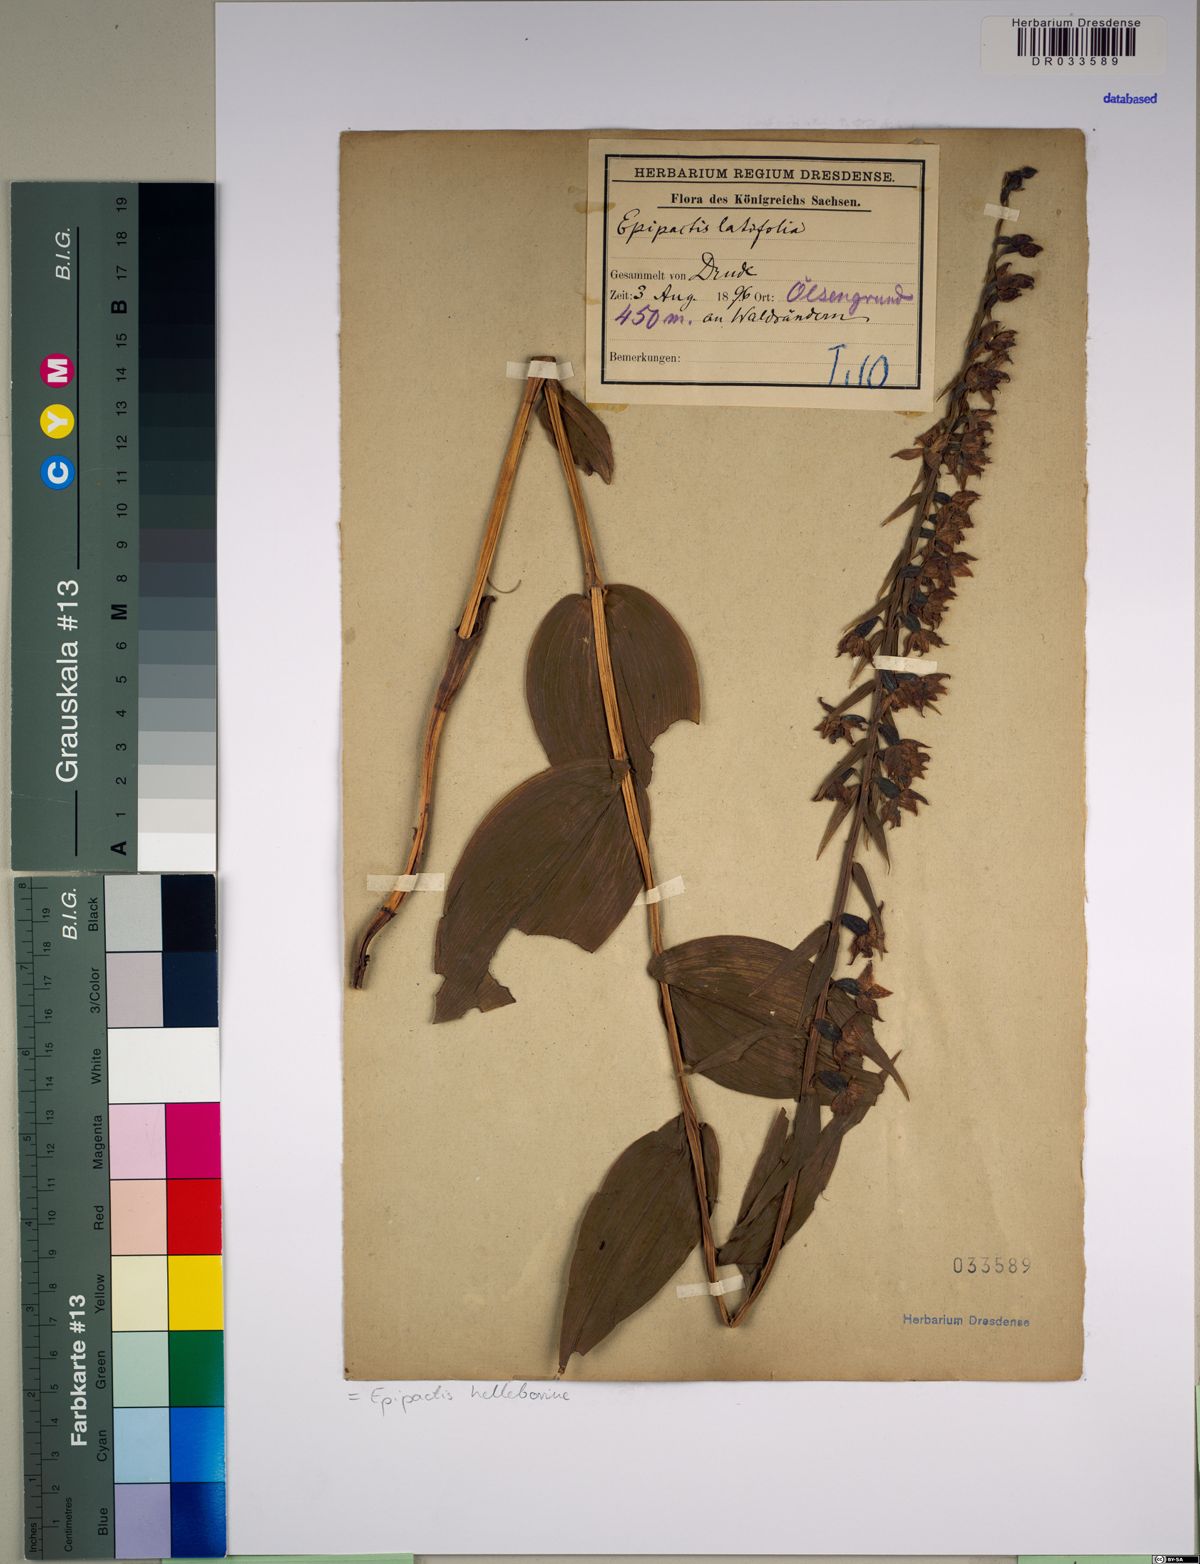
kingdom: Plantae
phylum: Tracheophyta
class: Liliopsida
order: Asparagales
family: Orchidaceae
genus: Epipactis
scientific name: Epipactis helleborine
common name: Broad-leaved helleborine
